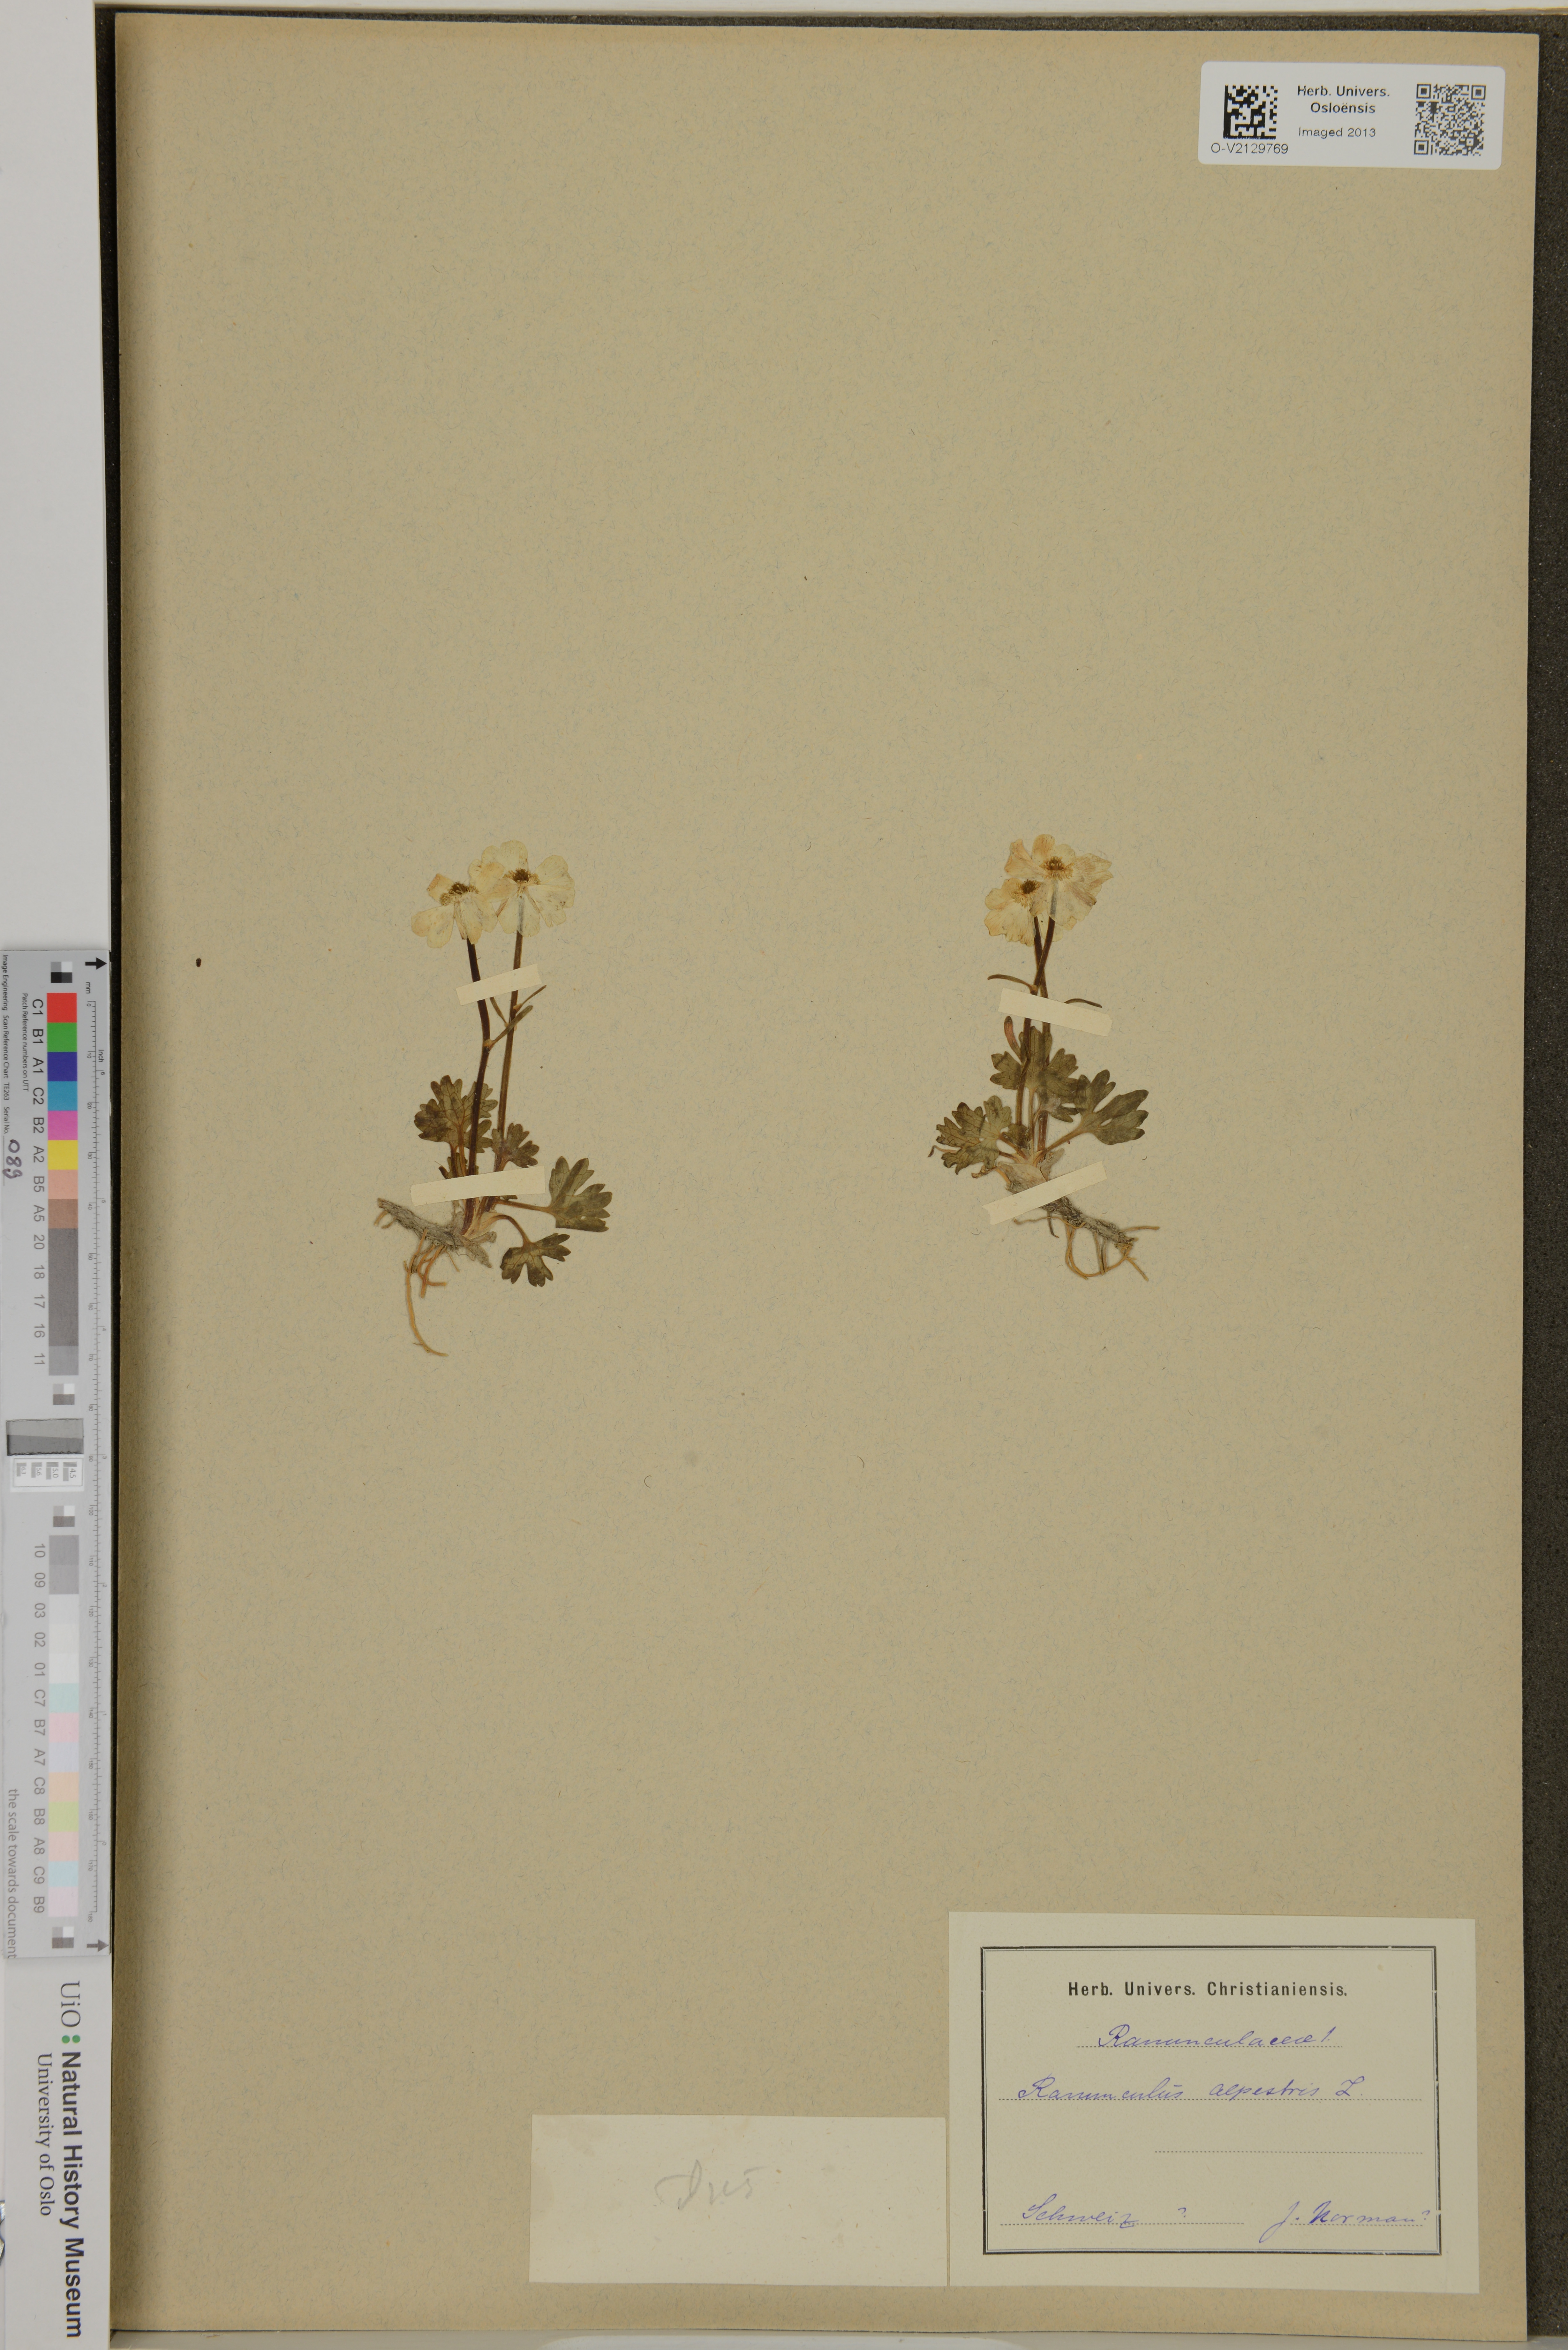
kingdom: Plantae
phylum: Tracheophyta
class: Magnoliopsida
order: Ranunculales
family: Ranunculaceae
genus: Ranunculus
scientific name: Ranunculus alpestris
